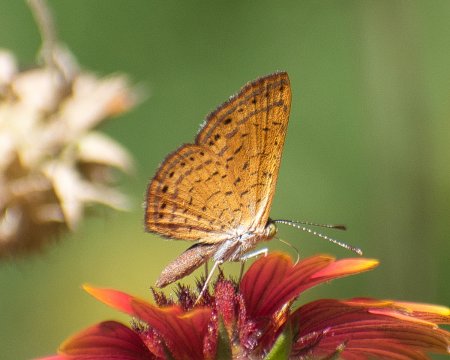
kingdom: Animalia
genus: Calephelis
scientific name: Calephelis nemesis
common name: Fatal Metalmark
